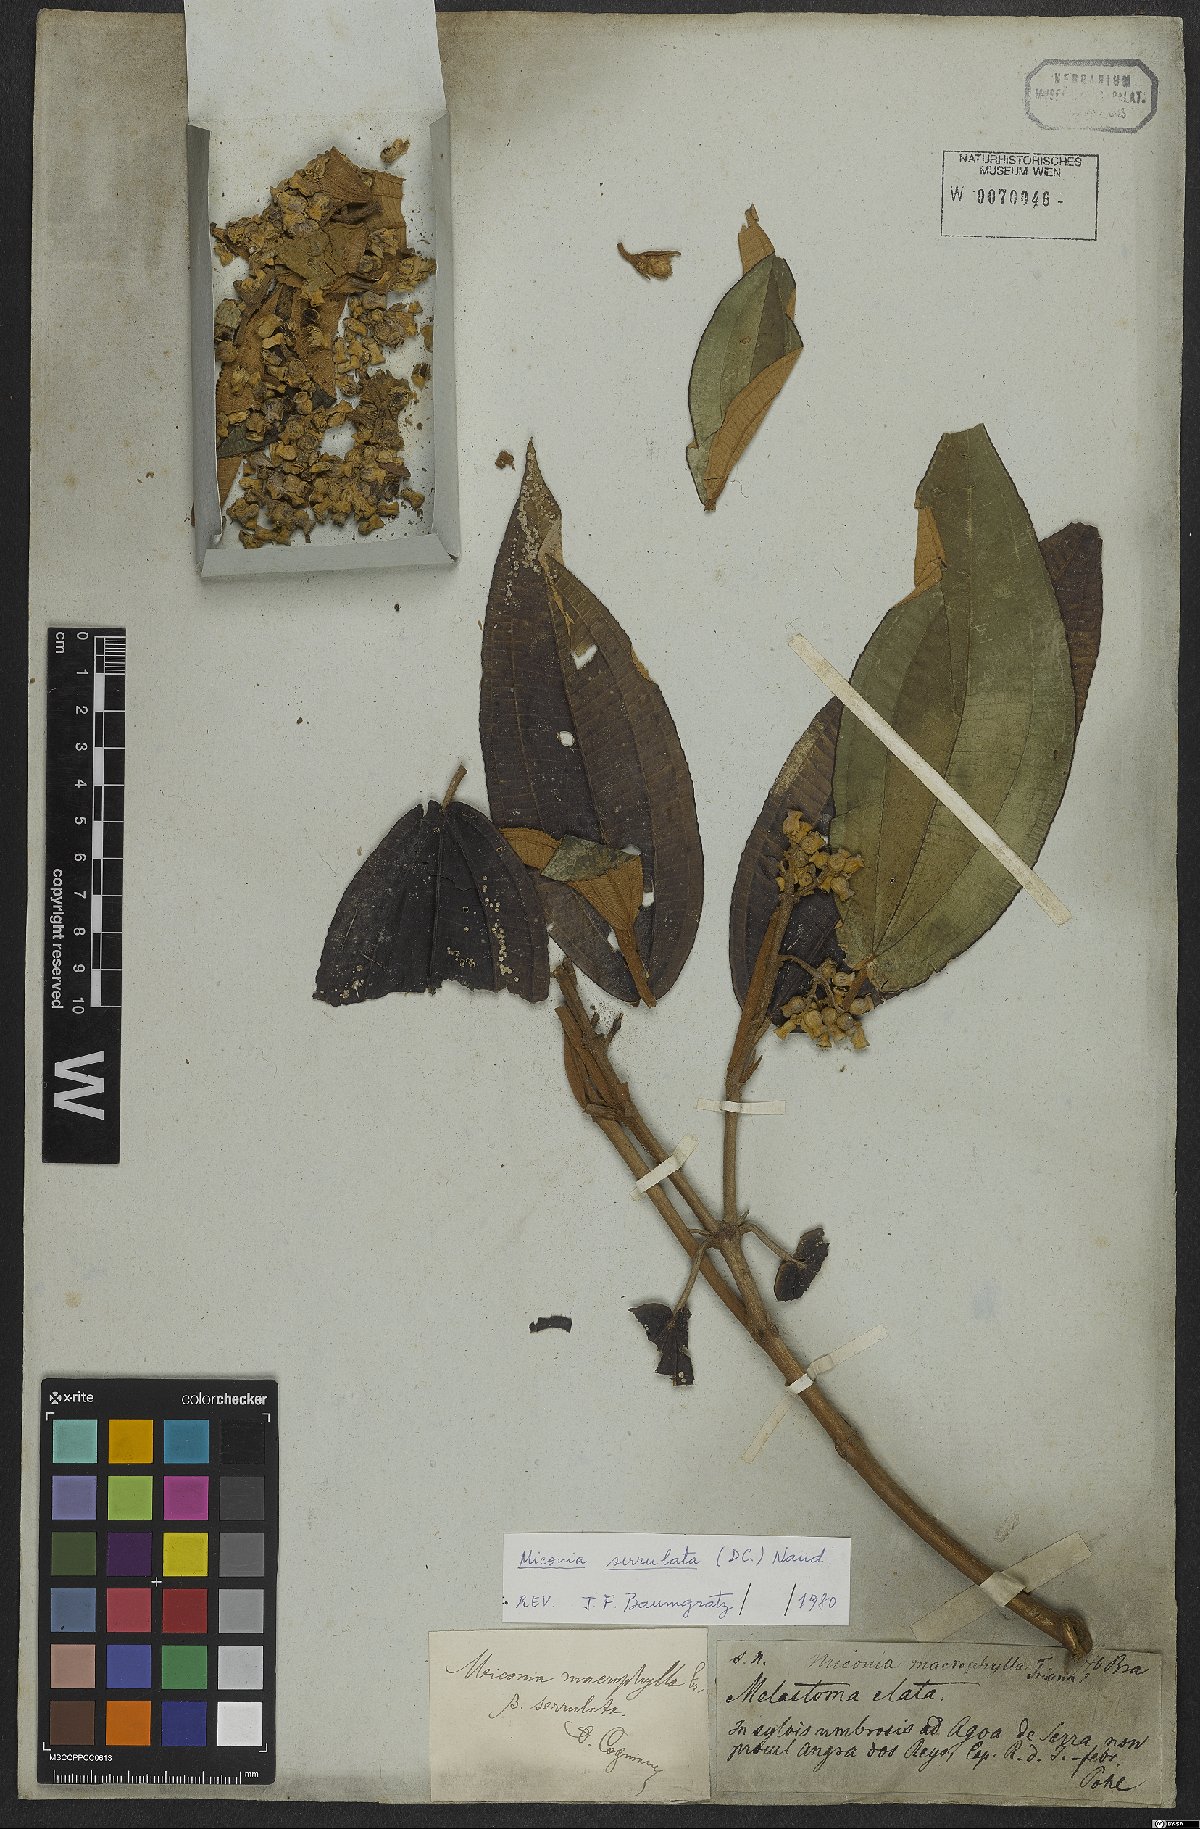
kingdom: Plantae
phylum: Tracheophyta
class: Magnoliopsida
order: Myrtales
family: Melastomataceae
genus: Miconia
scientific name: Miconia serrulata
